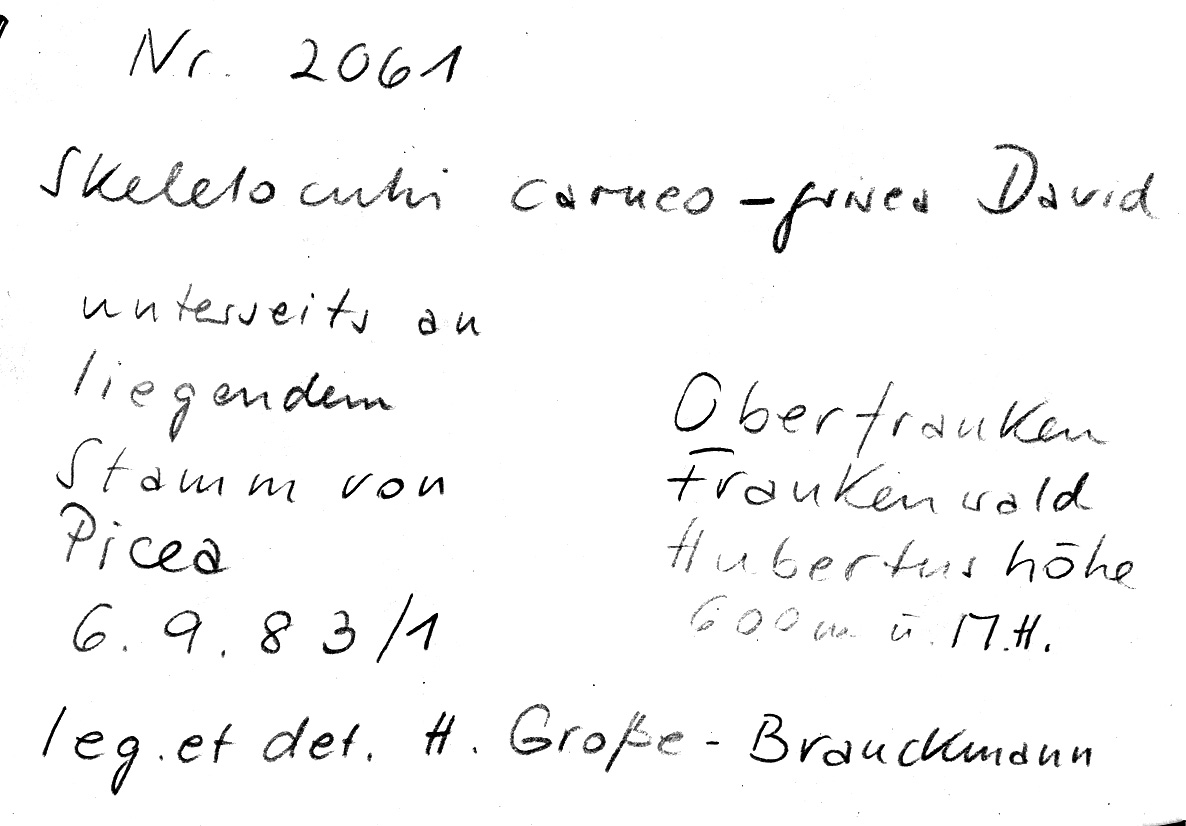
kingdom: Fungi
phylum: Basidiomycota
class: Agaricomycetes
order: Polyporales
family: Incrustoporiaceae
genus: Skeletocutis
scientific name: Skeletocutis carneogrisea
